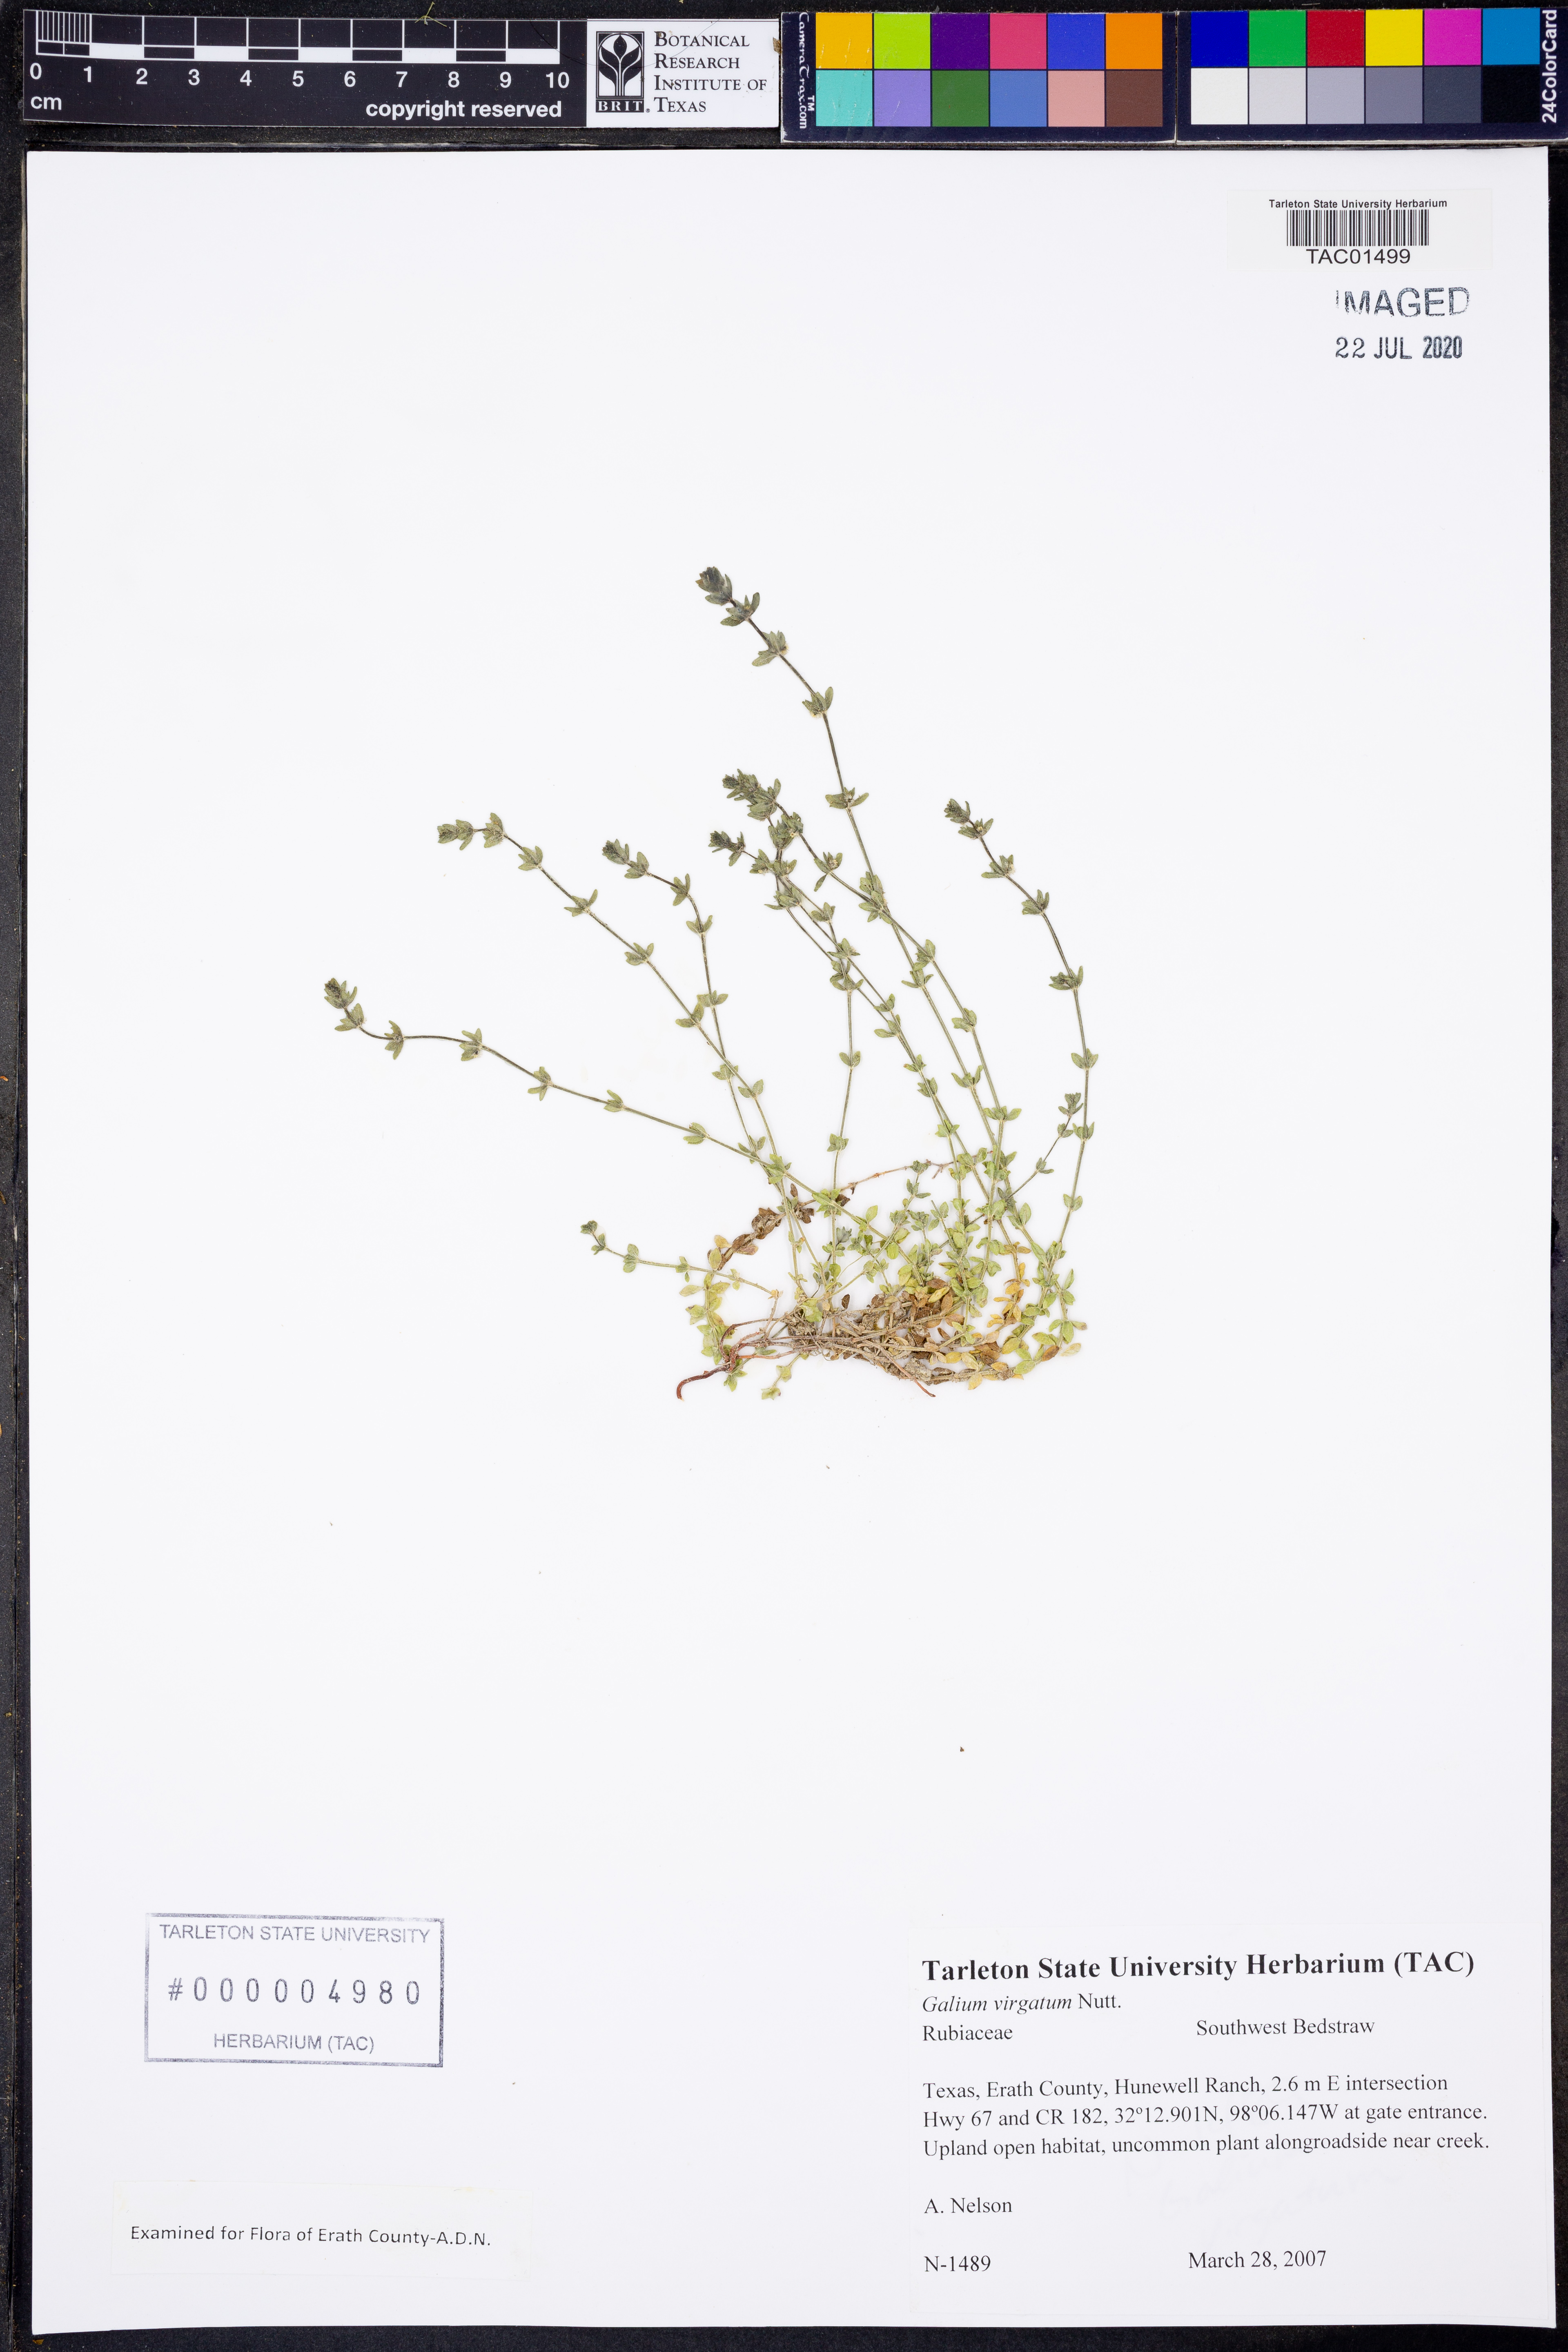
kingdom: Plantae
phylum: Tracheophyta
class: Magnoliopsida
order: Gentianales
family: Rubiaceae
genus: Galium
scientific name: Galium virgatum
